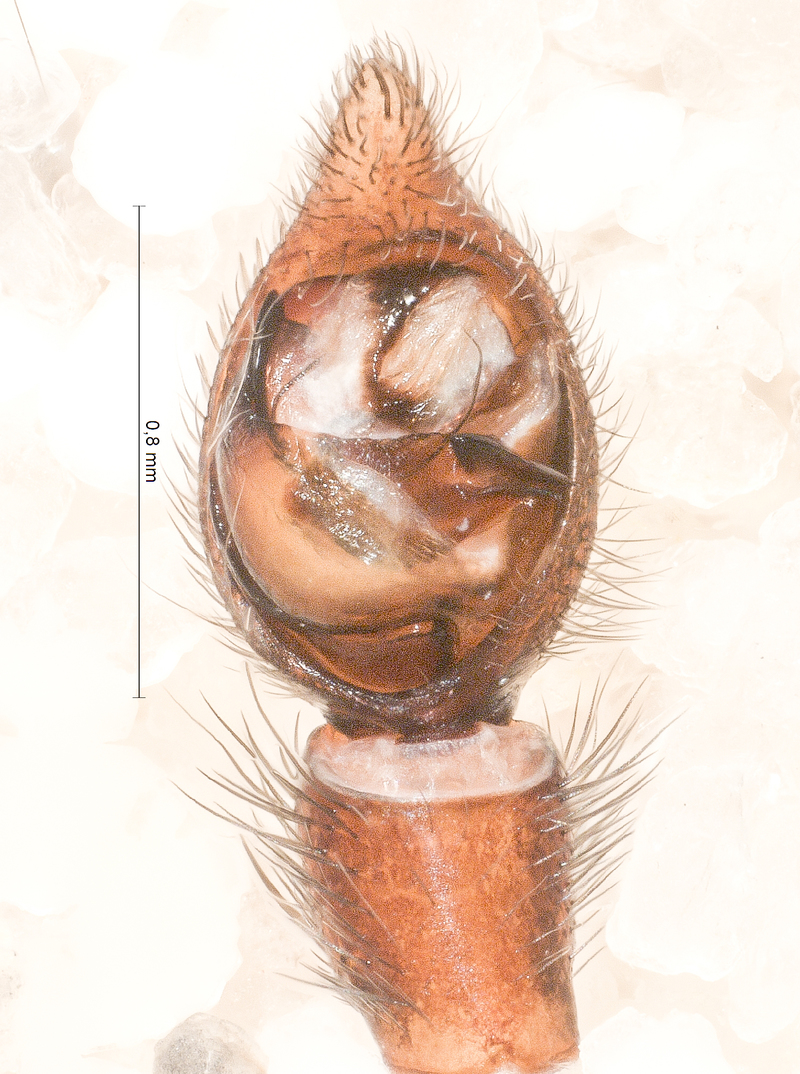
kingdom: Animalia
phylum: Arthropoda
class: Arachnida
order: Araneae
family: Lycosidae
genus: Alopecosa
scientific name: Alopecosa pulverulenta
